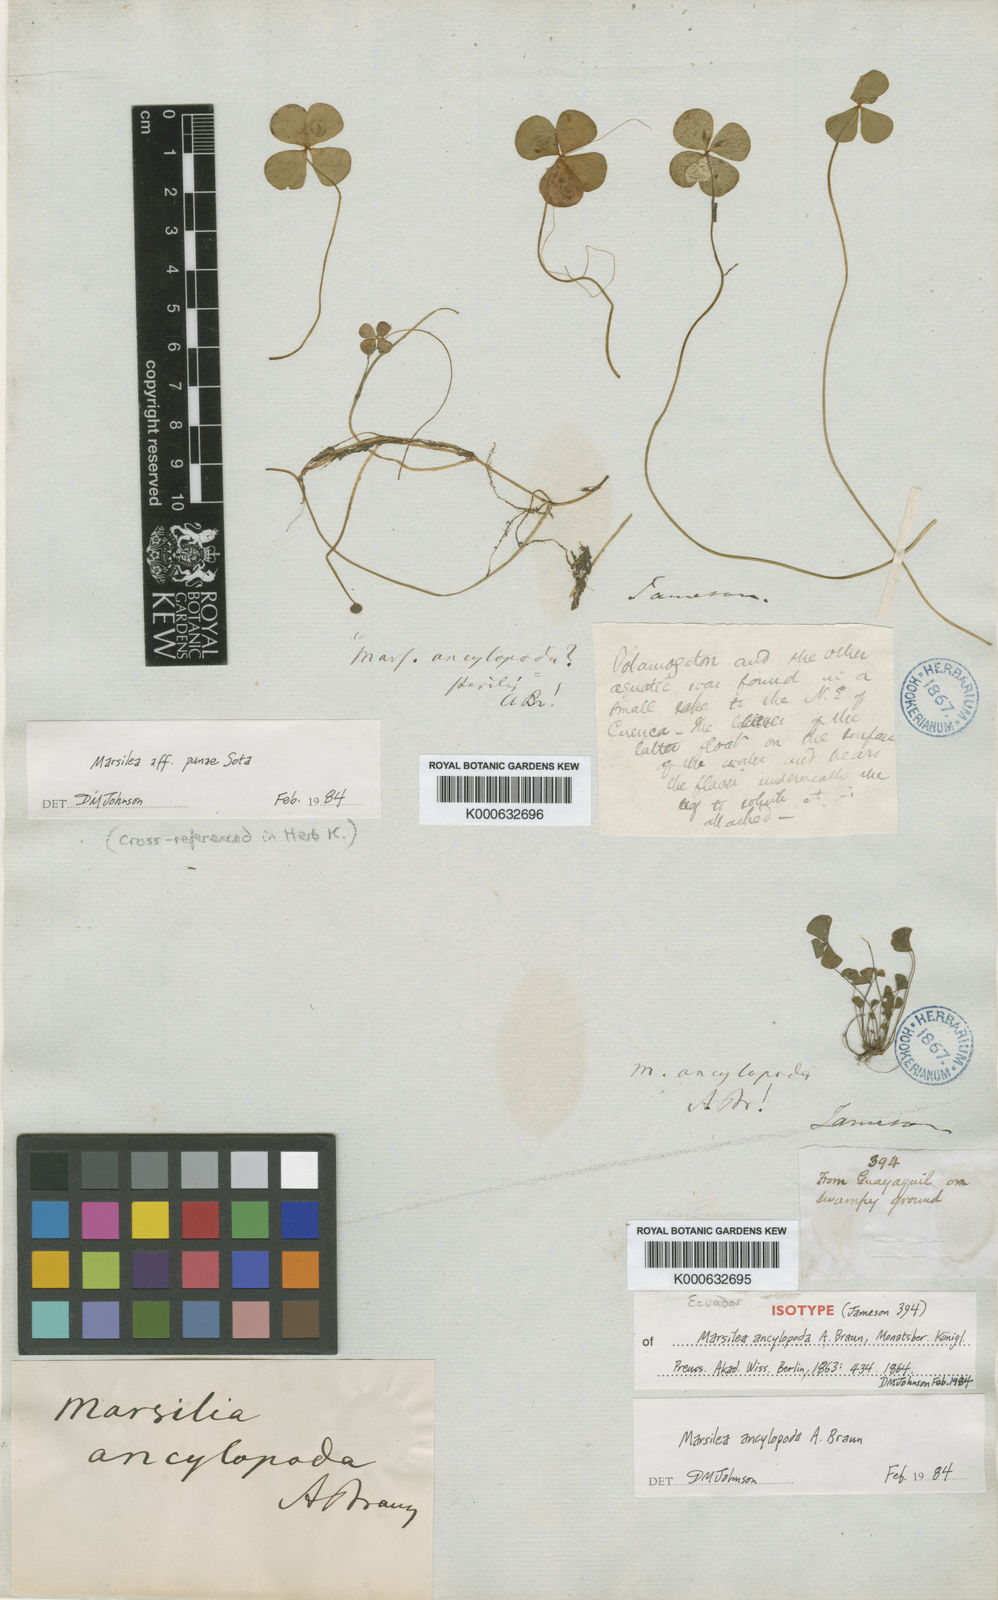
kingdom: Plantae
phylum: Tracheophyta
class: Polypodiopsida
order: Salviniales
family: Marsileaceae
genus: Marsilea
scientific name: Marsilea
